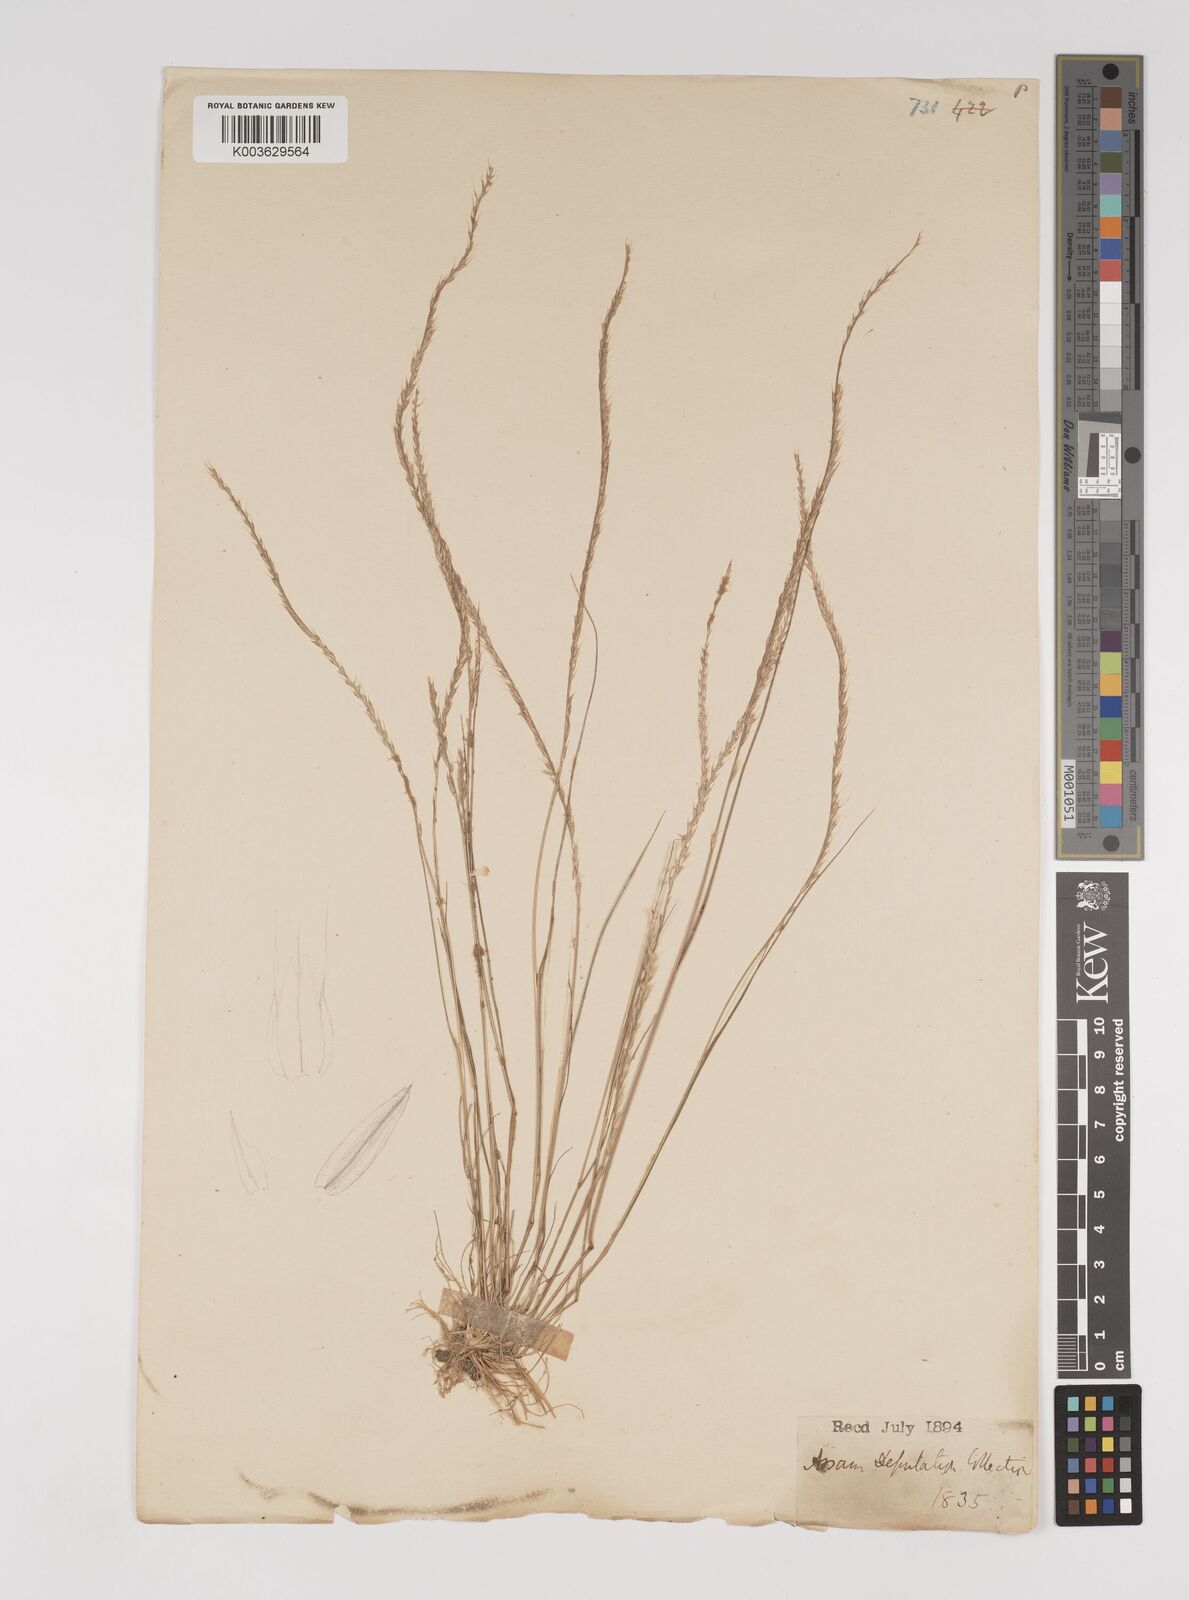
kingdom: Plantae
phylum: Tracheophyta
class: Liliopsida
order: Poales
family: Poaceae
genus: Tripogon
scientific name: Tripogon filiformis
